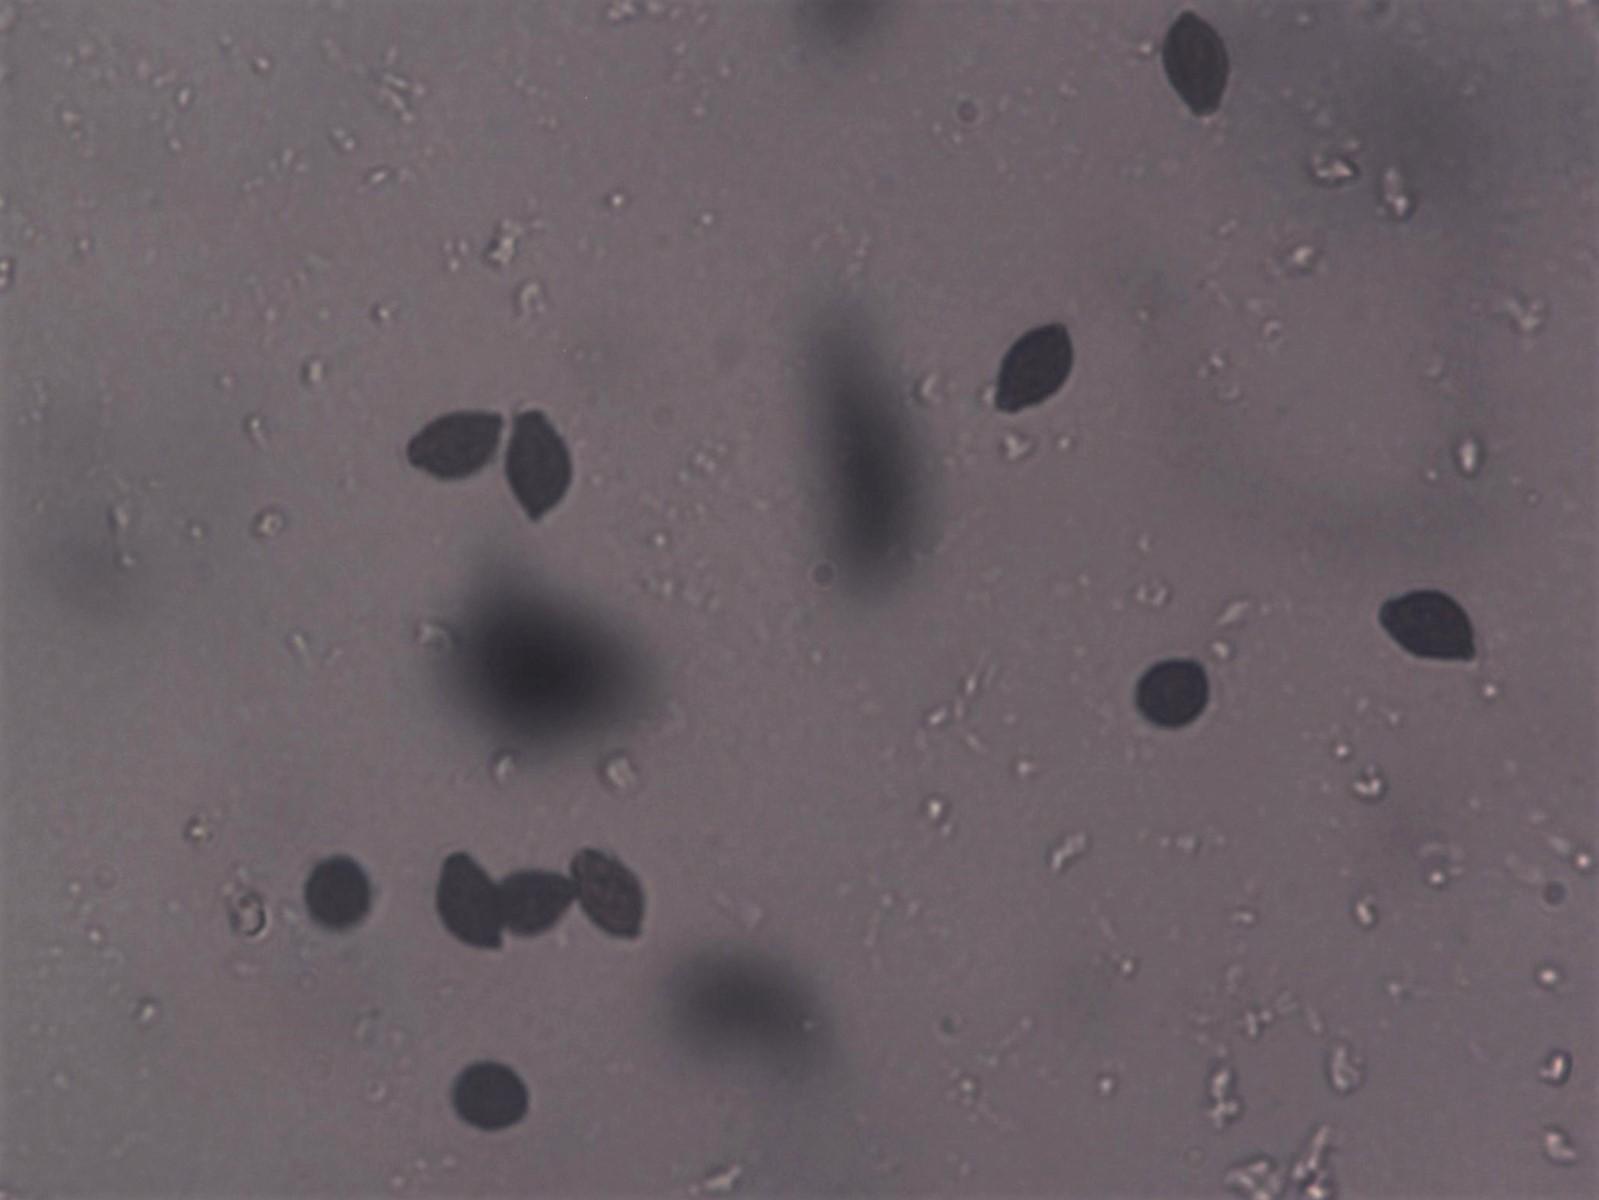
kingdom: Fungi
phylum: Basidiomycota
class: Agaricomycetes
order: Agaricales
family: Psathyrellaceae
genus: Lacrymaria
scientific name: Lacrymaria lacrymabunda
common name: grædende mørkhat
